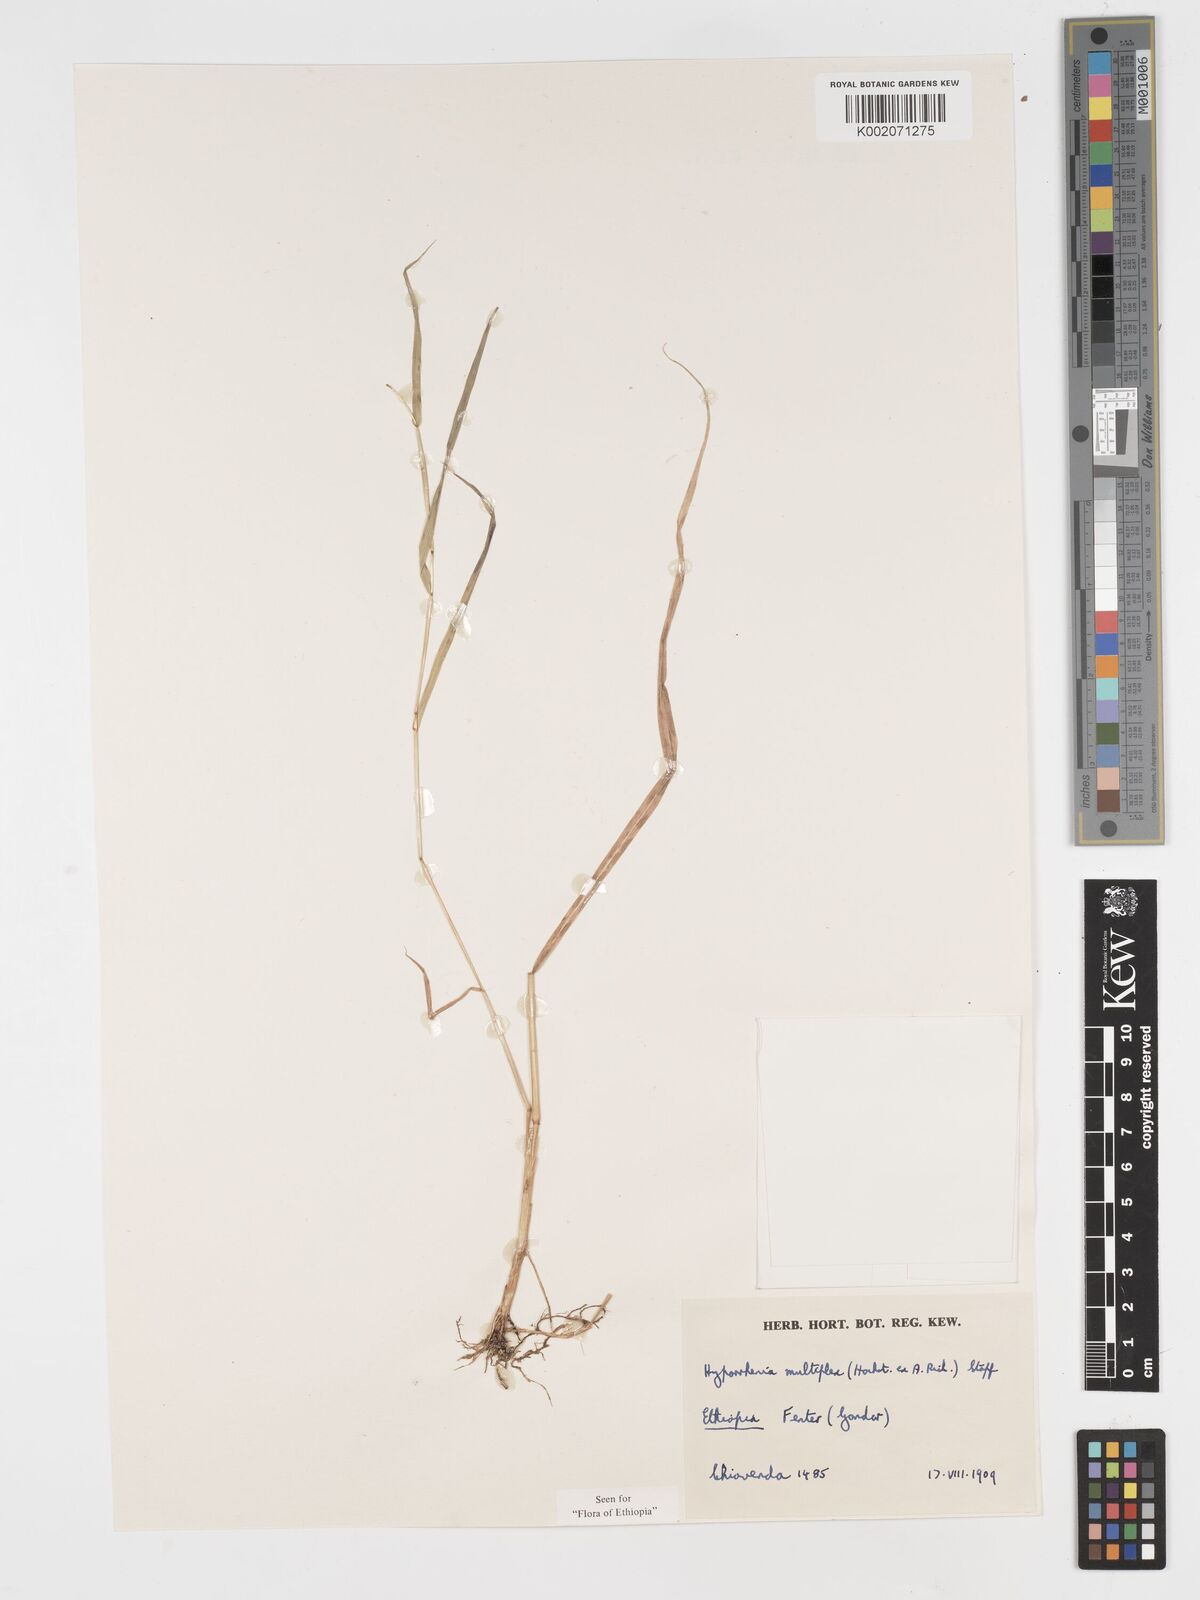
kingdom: Plantae
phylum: Tracheophyta
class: Liliopsida
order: Poales
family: Poaceae
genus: Hyparrhenia
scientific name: Hyparrhenia multiplex
